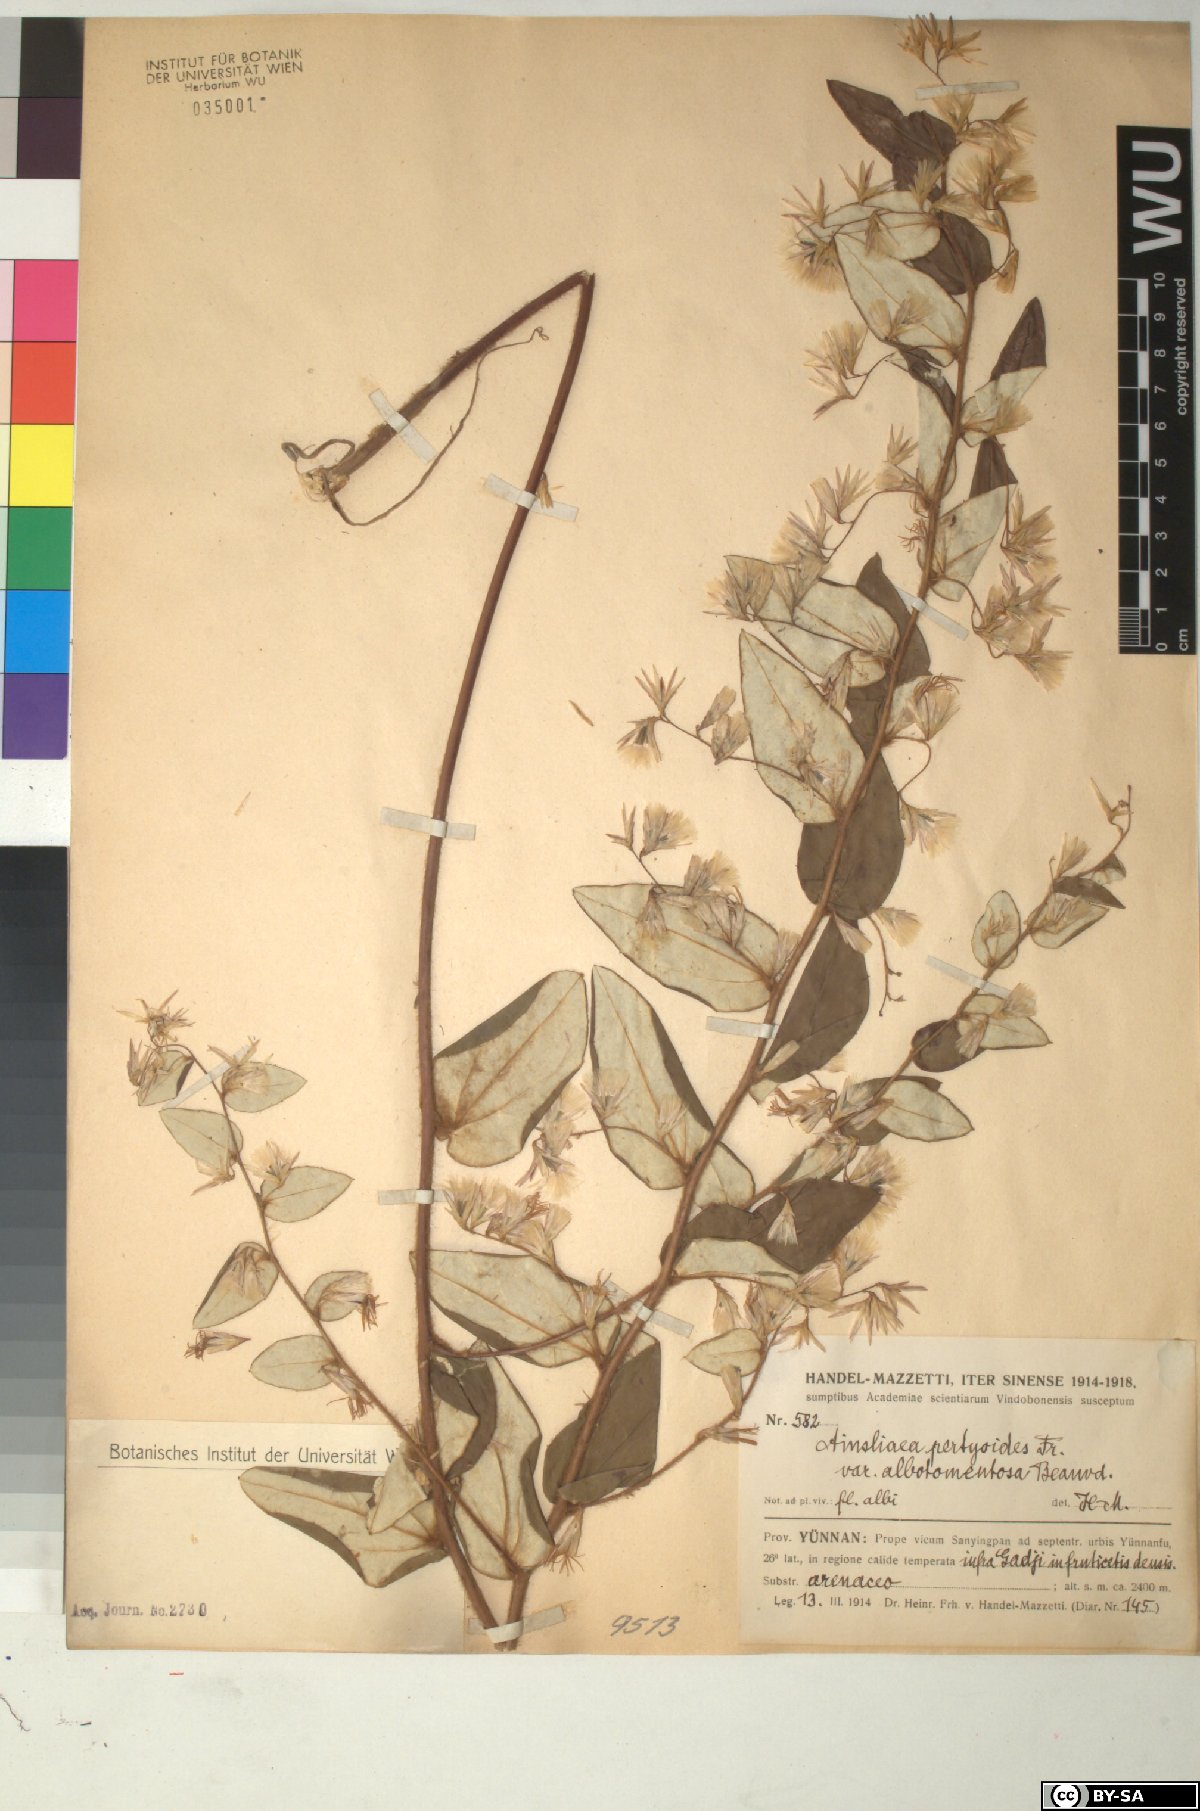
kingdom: Plantae
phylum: Tracheophyta
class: Magnoliopsida
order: Asterales
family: Asteraceae
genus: Ainsliaea
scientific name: Ainsliaea pertyoides
